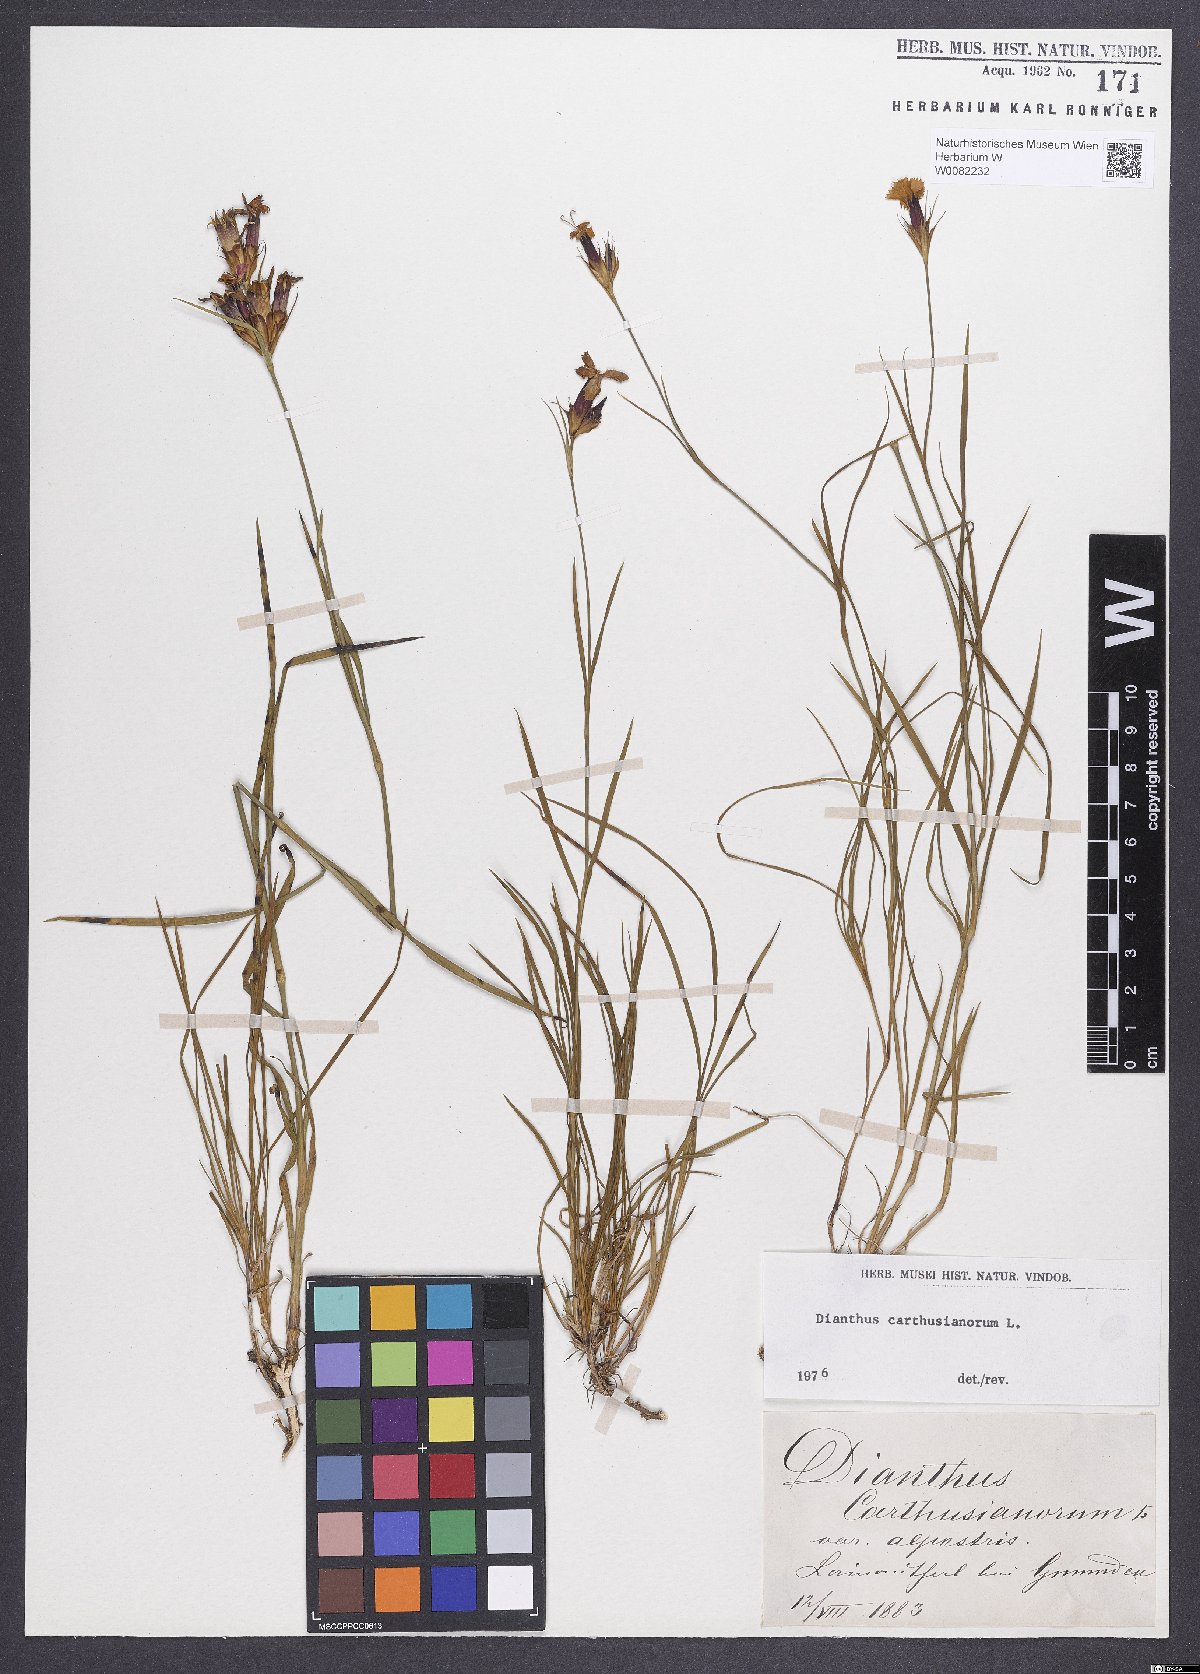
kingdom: Plantae
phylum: Tracheophyta
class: Magnoliopsida
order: Caryophyllales
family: Caryophyllaceae
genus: Dianthus
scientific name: Dianthus carthusianorum
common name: Carthusian pink
